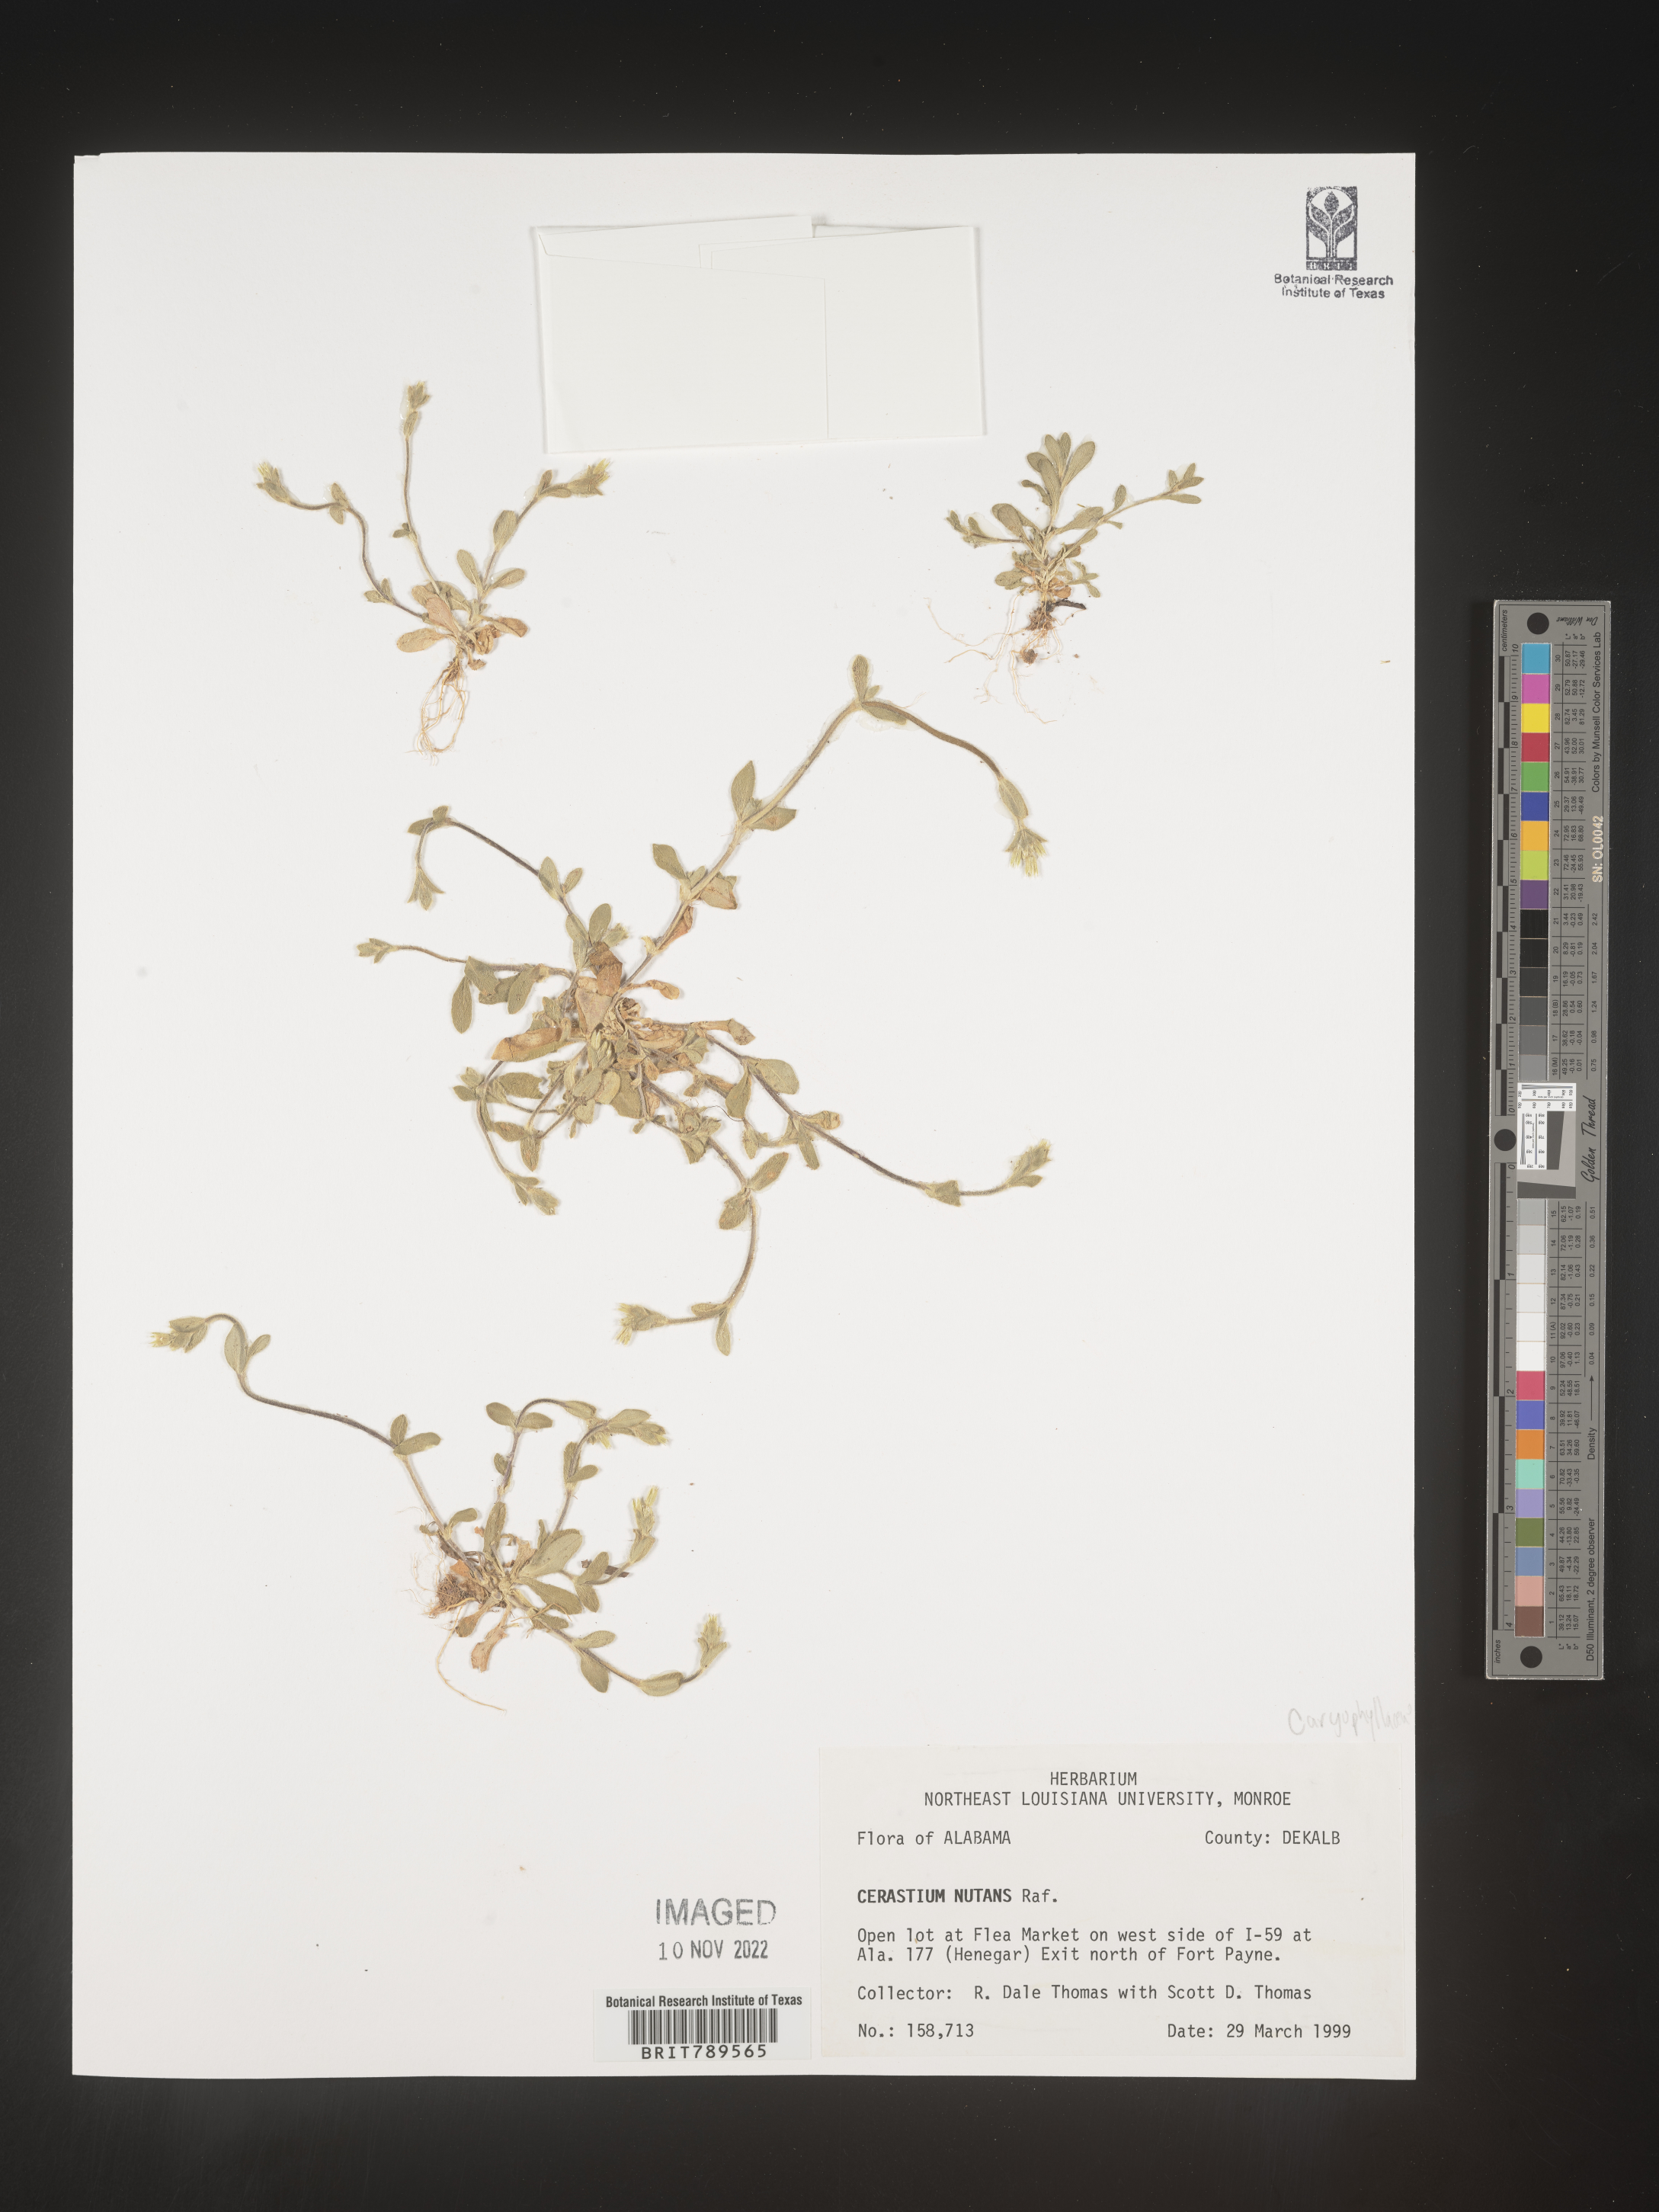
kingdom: Plantae
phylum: Tracheophyta
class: Magnoliopsida
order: Caryophyllales
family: Caryophyllaceae
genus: Cerastium
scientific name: Cerastium nutans
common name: Long-stalked chickweed
